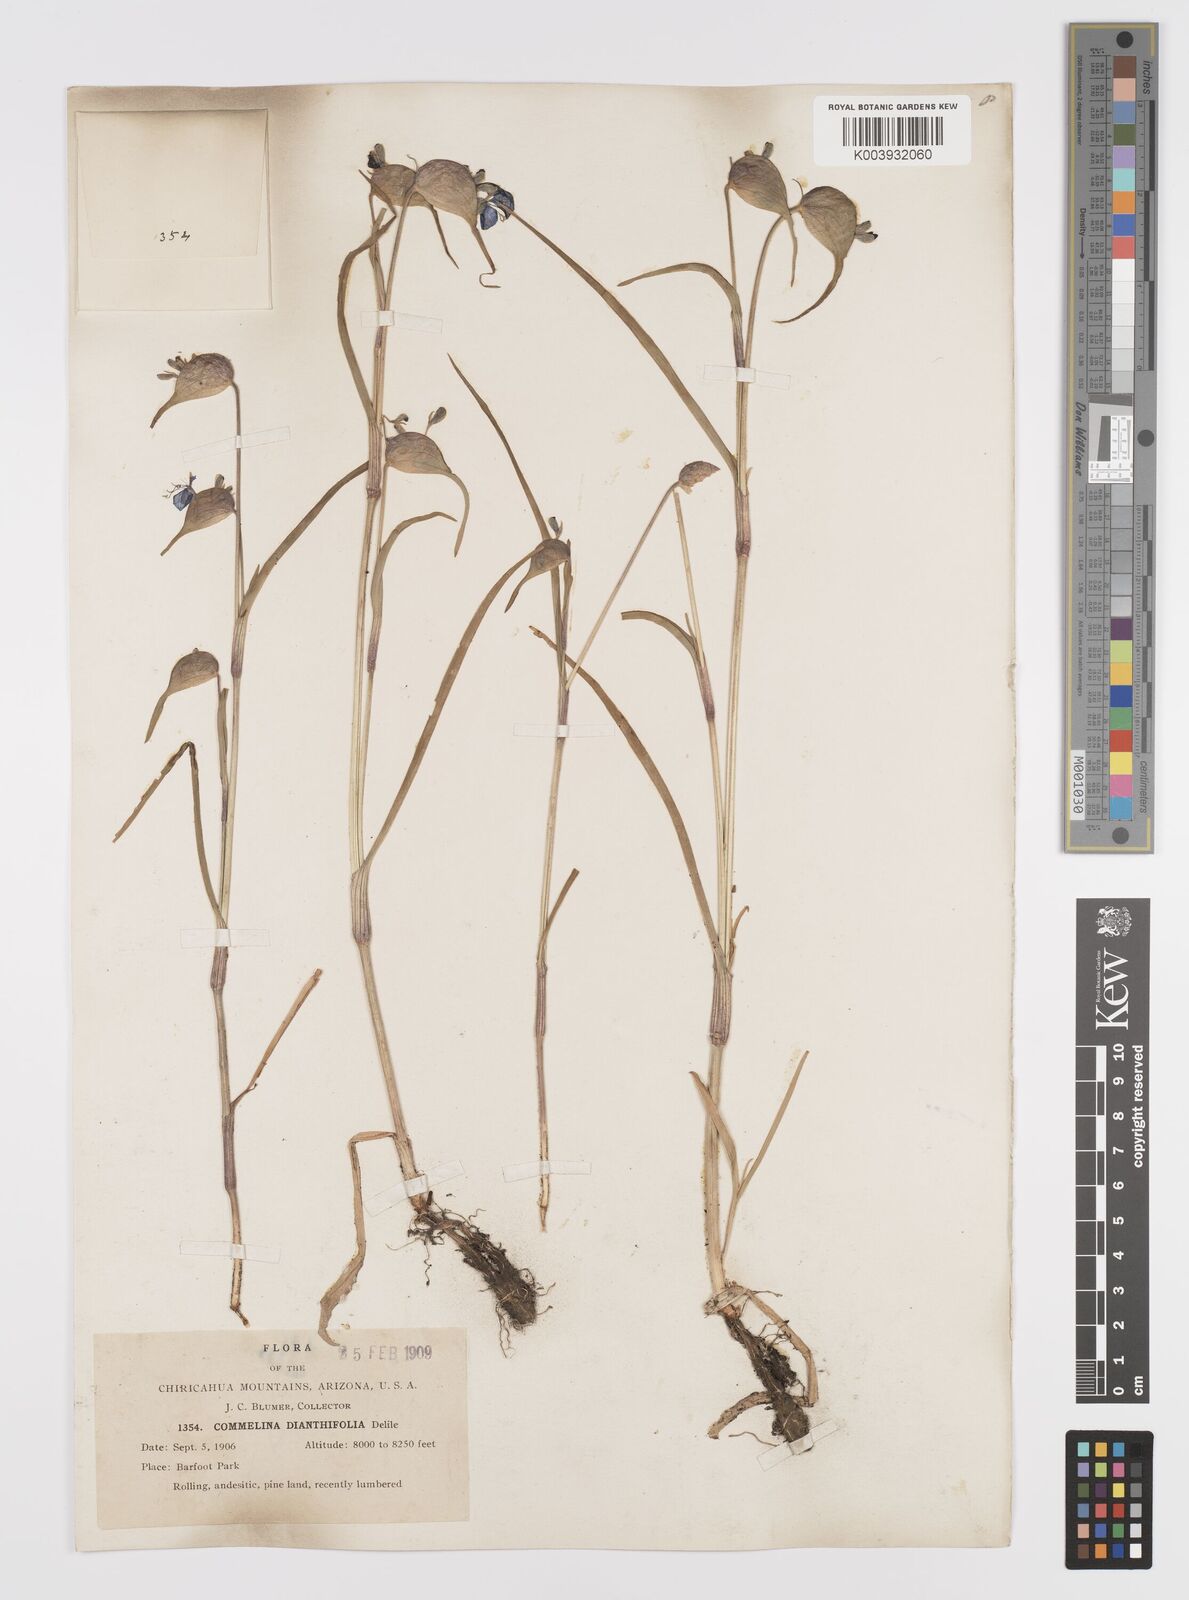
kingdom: Plantae
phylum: Tracheophyta
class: Liliopsida
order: Commelinales
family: Commelinaceae
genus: Commelina
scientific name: Commelina dianthifolia
